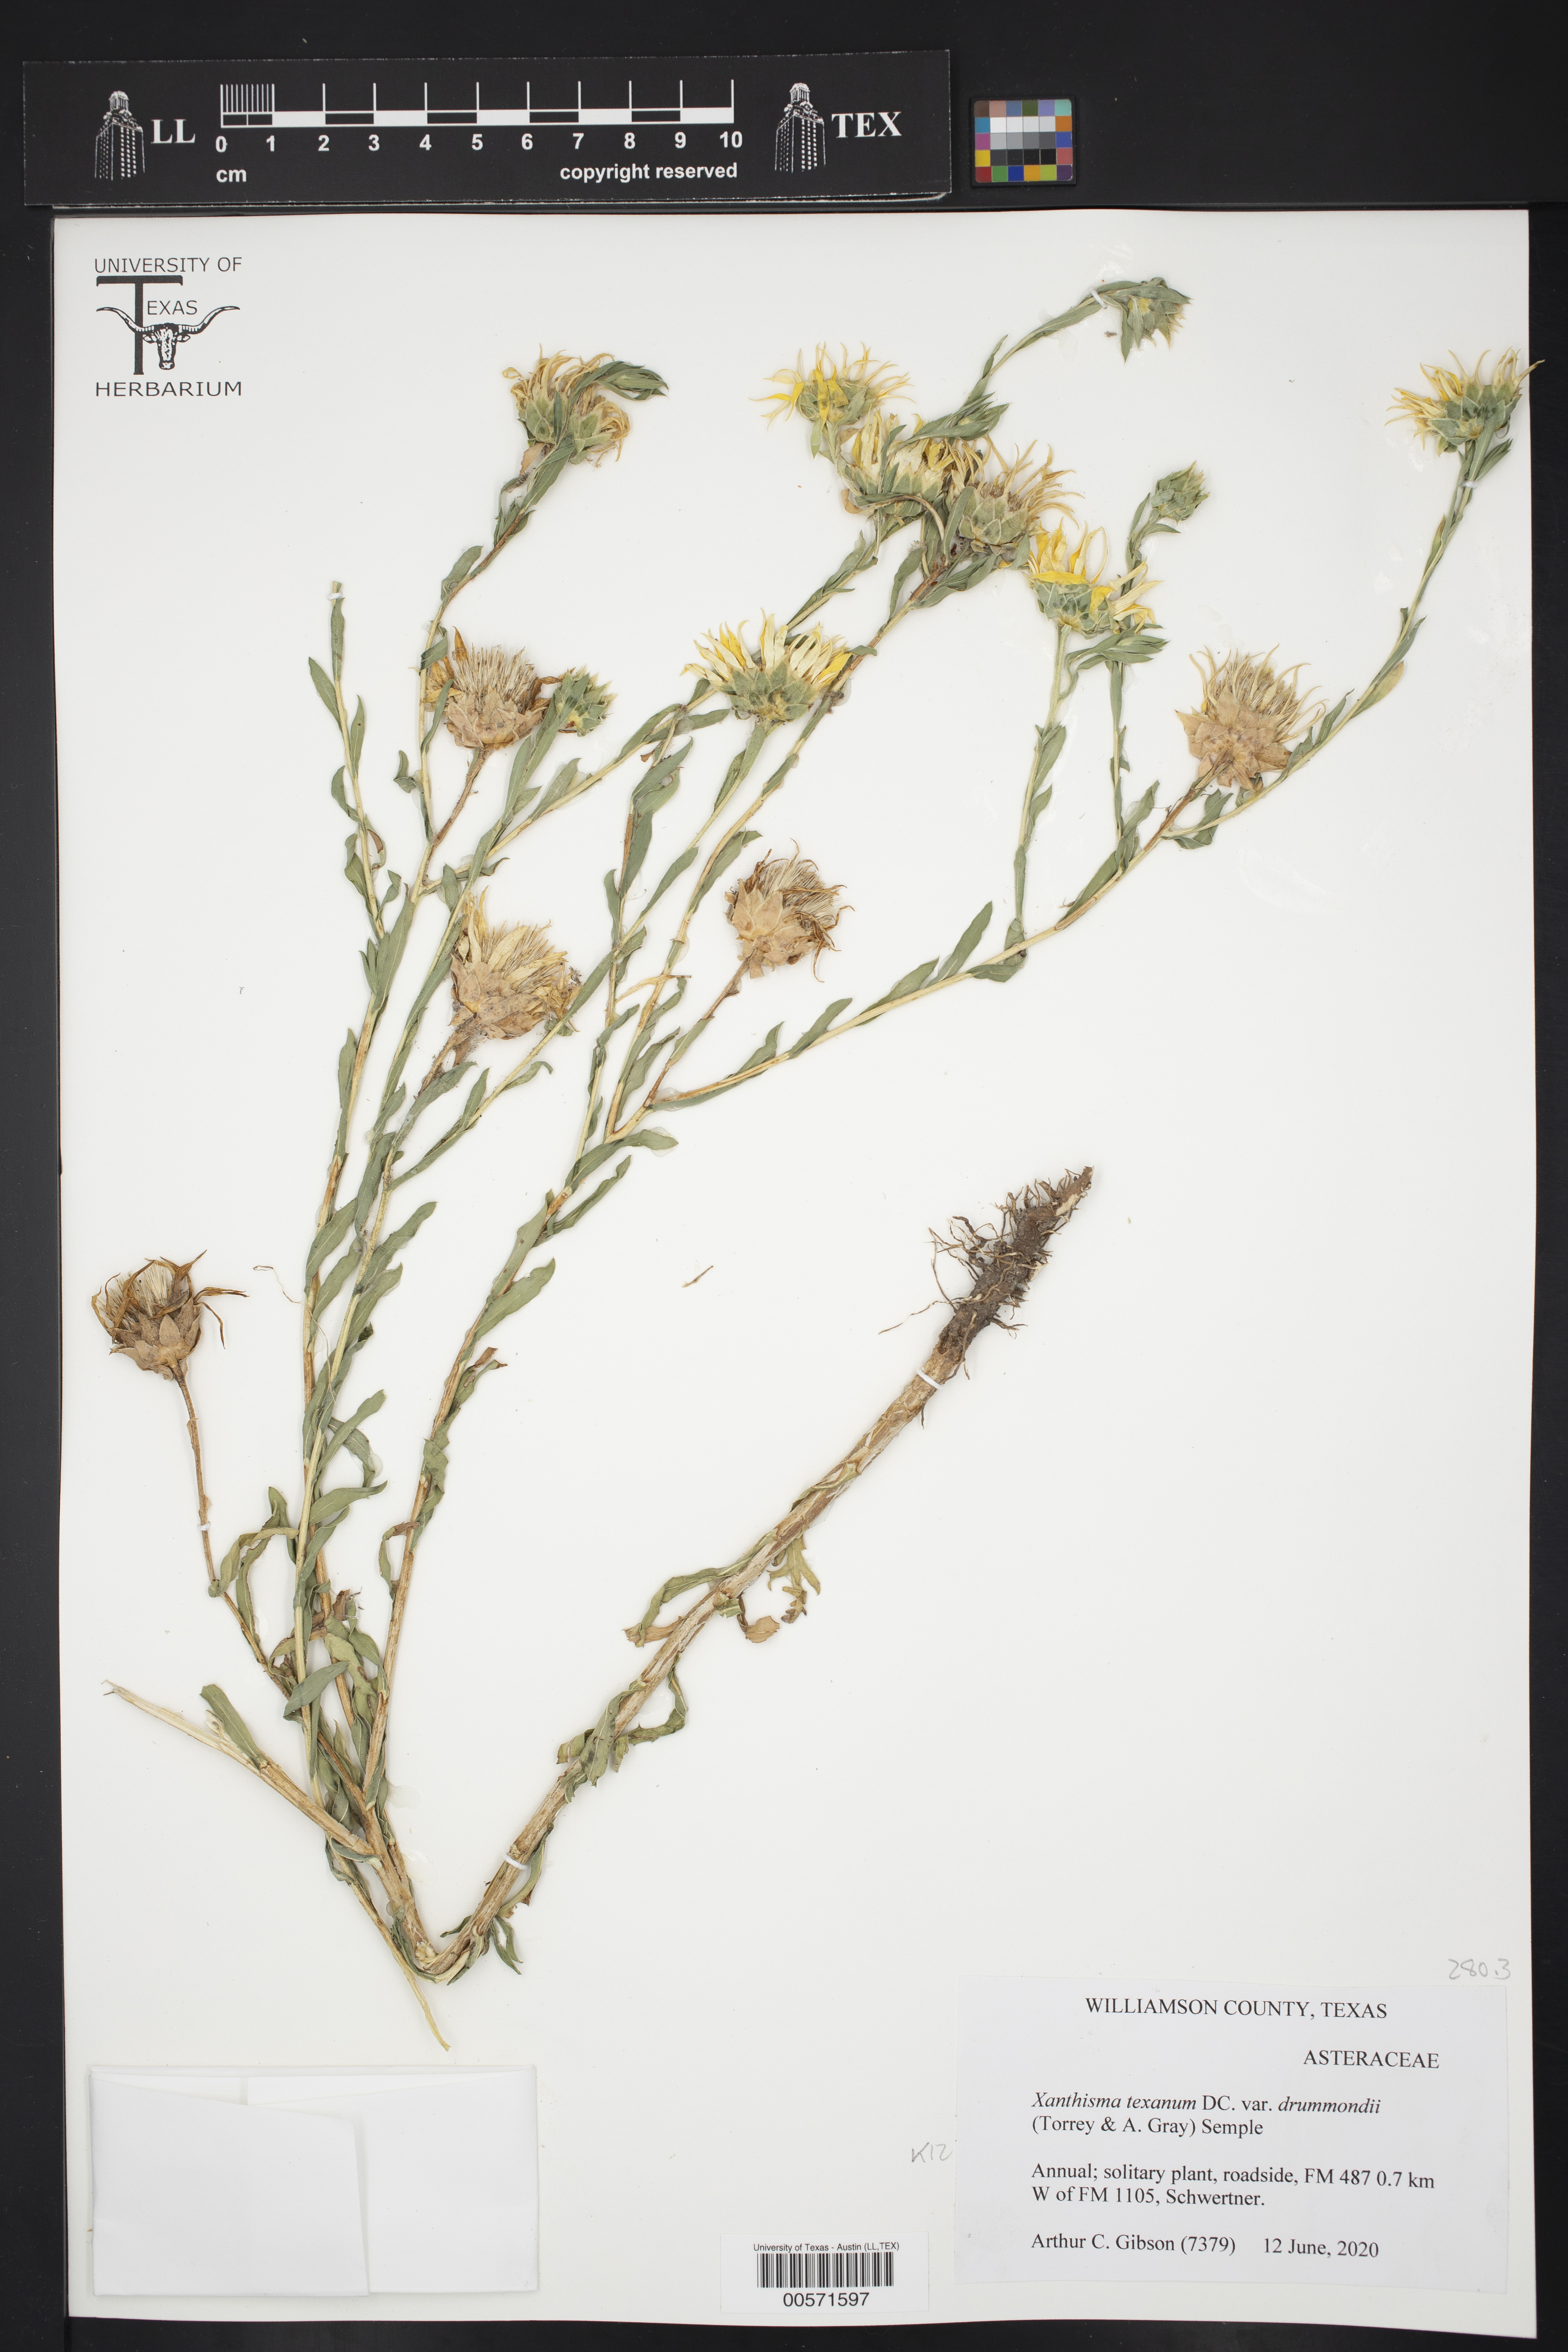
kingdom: Plantae
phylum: Tracheophyta
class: Magnoliopsida
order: Asterales
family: Asteraceae
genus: Xanthisma
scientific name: Xanthisma texanum
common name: Texas sleepy daisy
